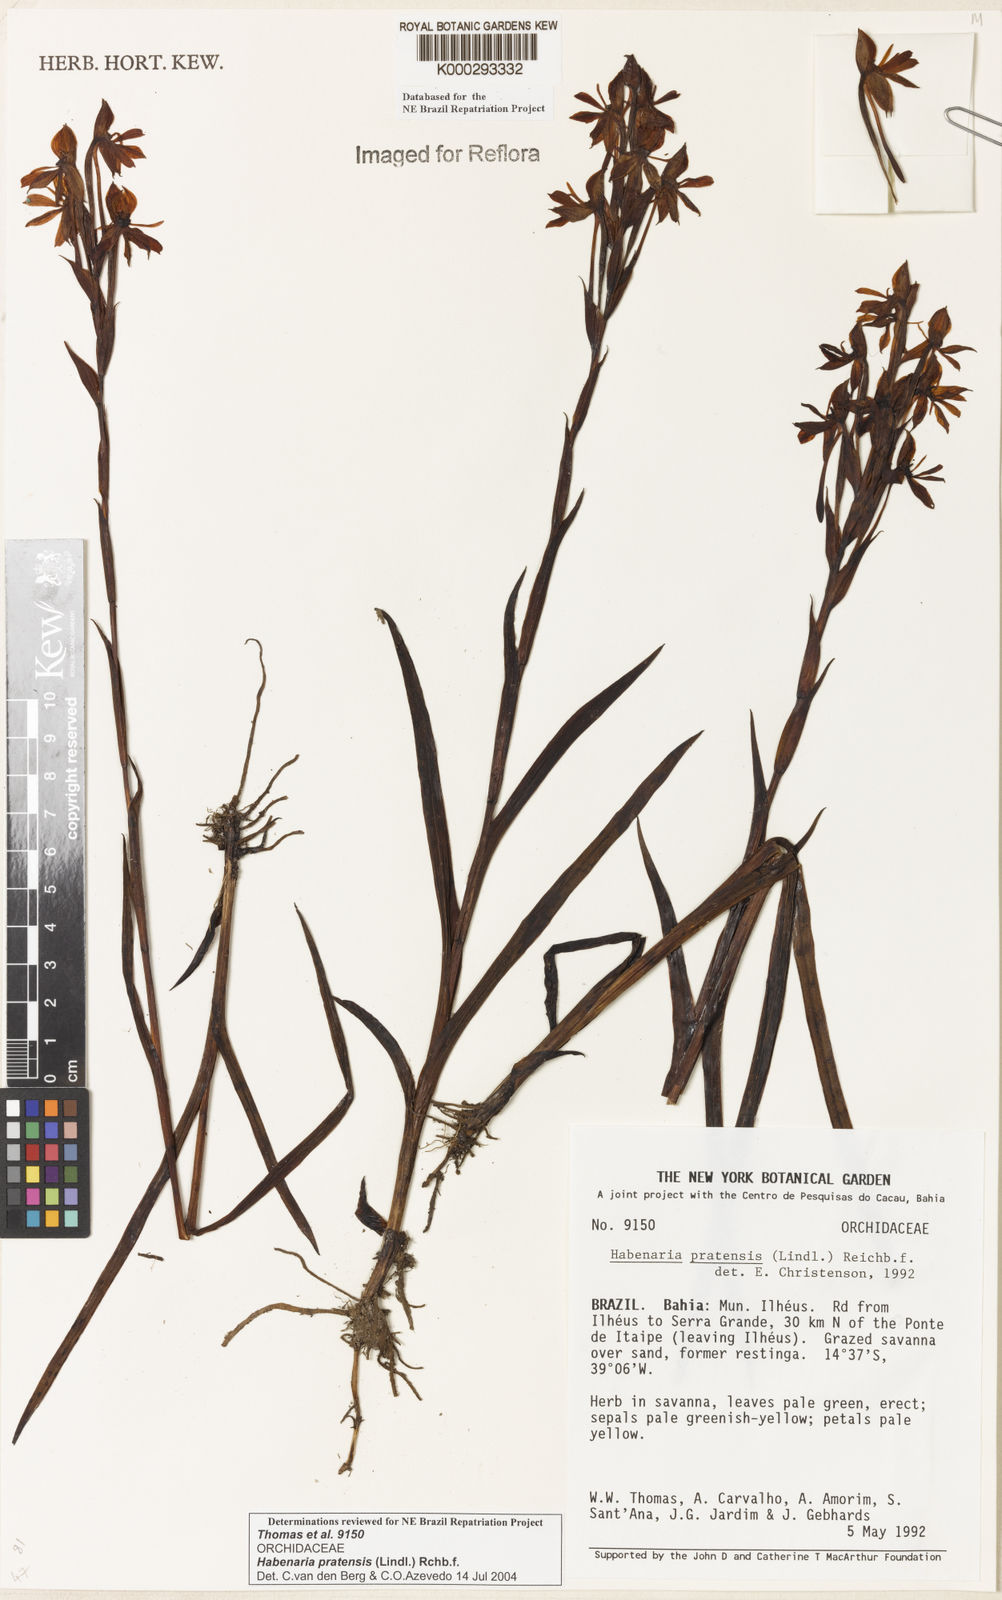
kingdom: Plantae
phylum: Tracheophyta
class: Liliopsida
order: Asparagales
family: Orchidaceae
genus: Habenaria
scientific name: Habenaria pratensis
